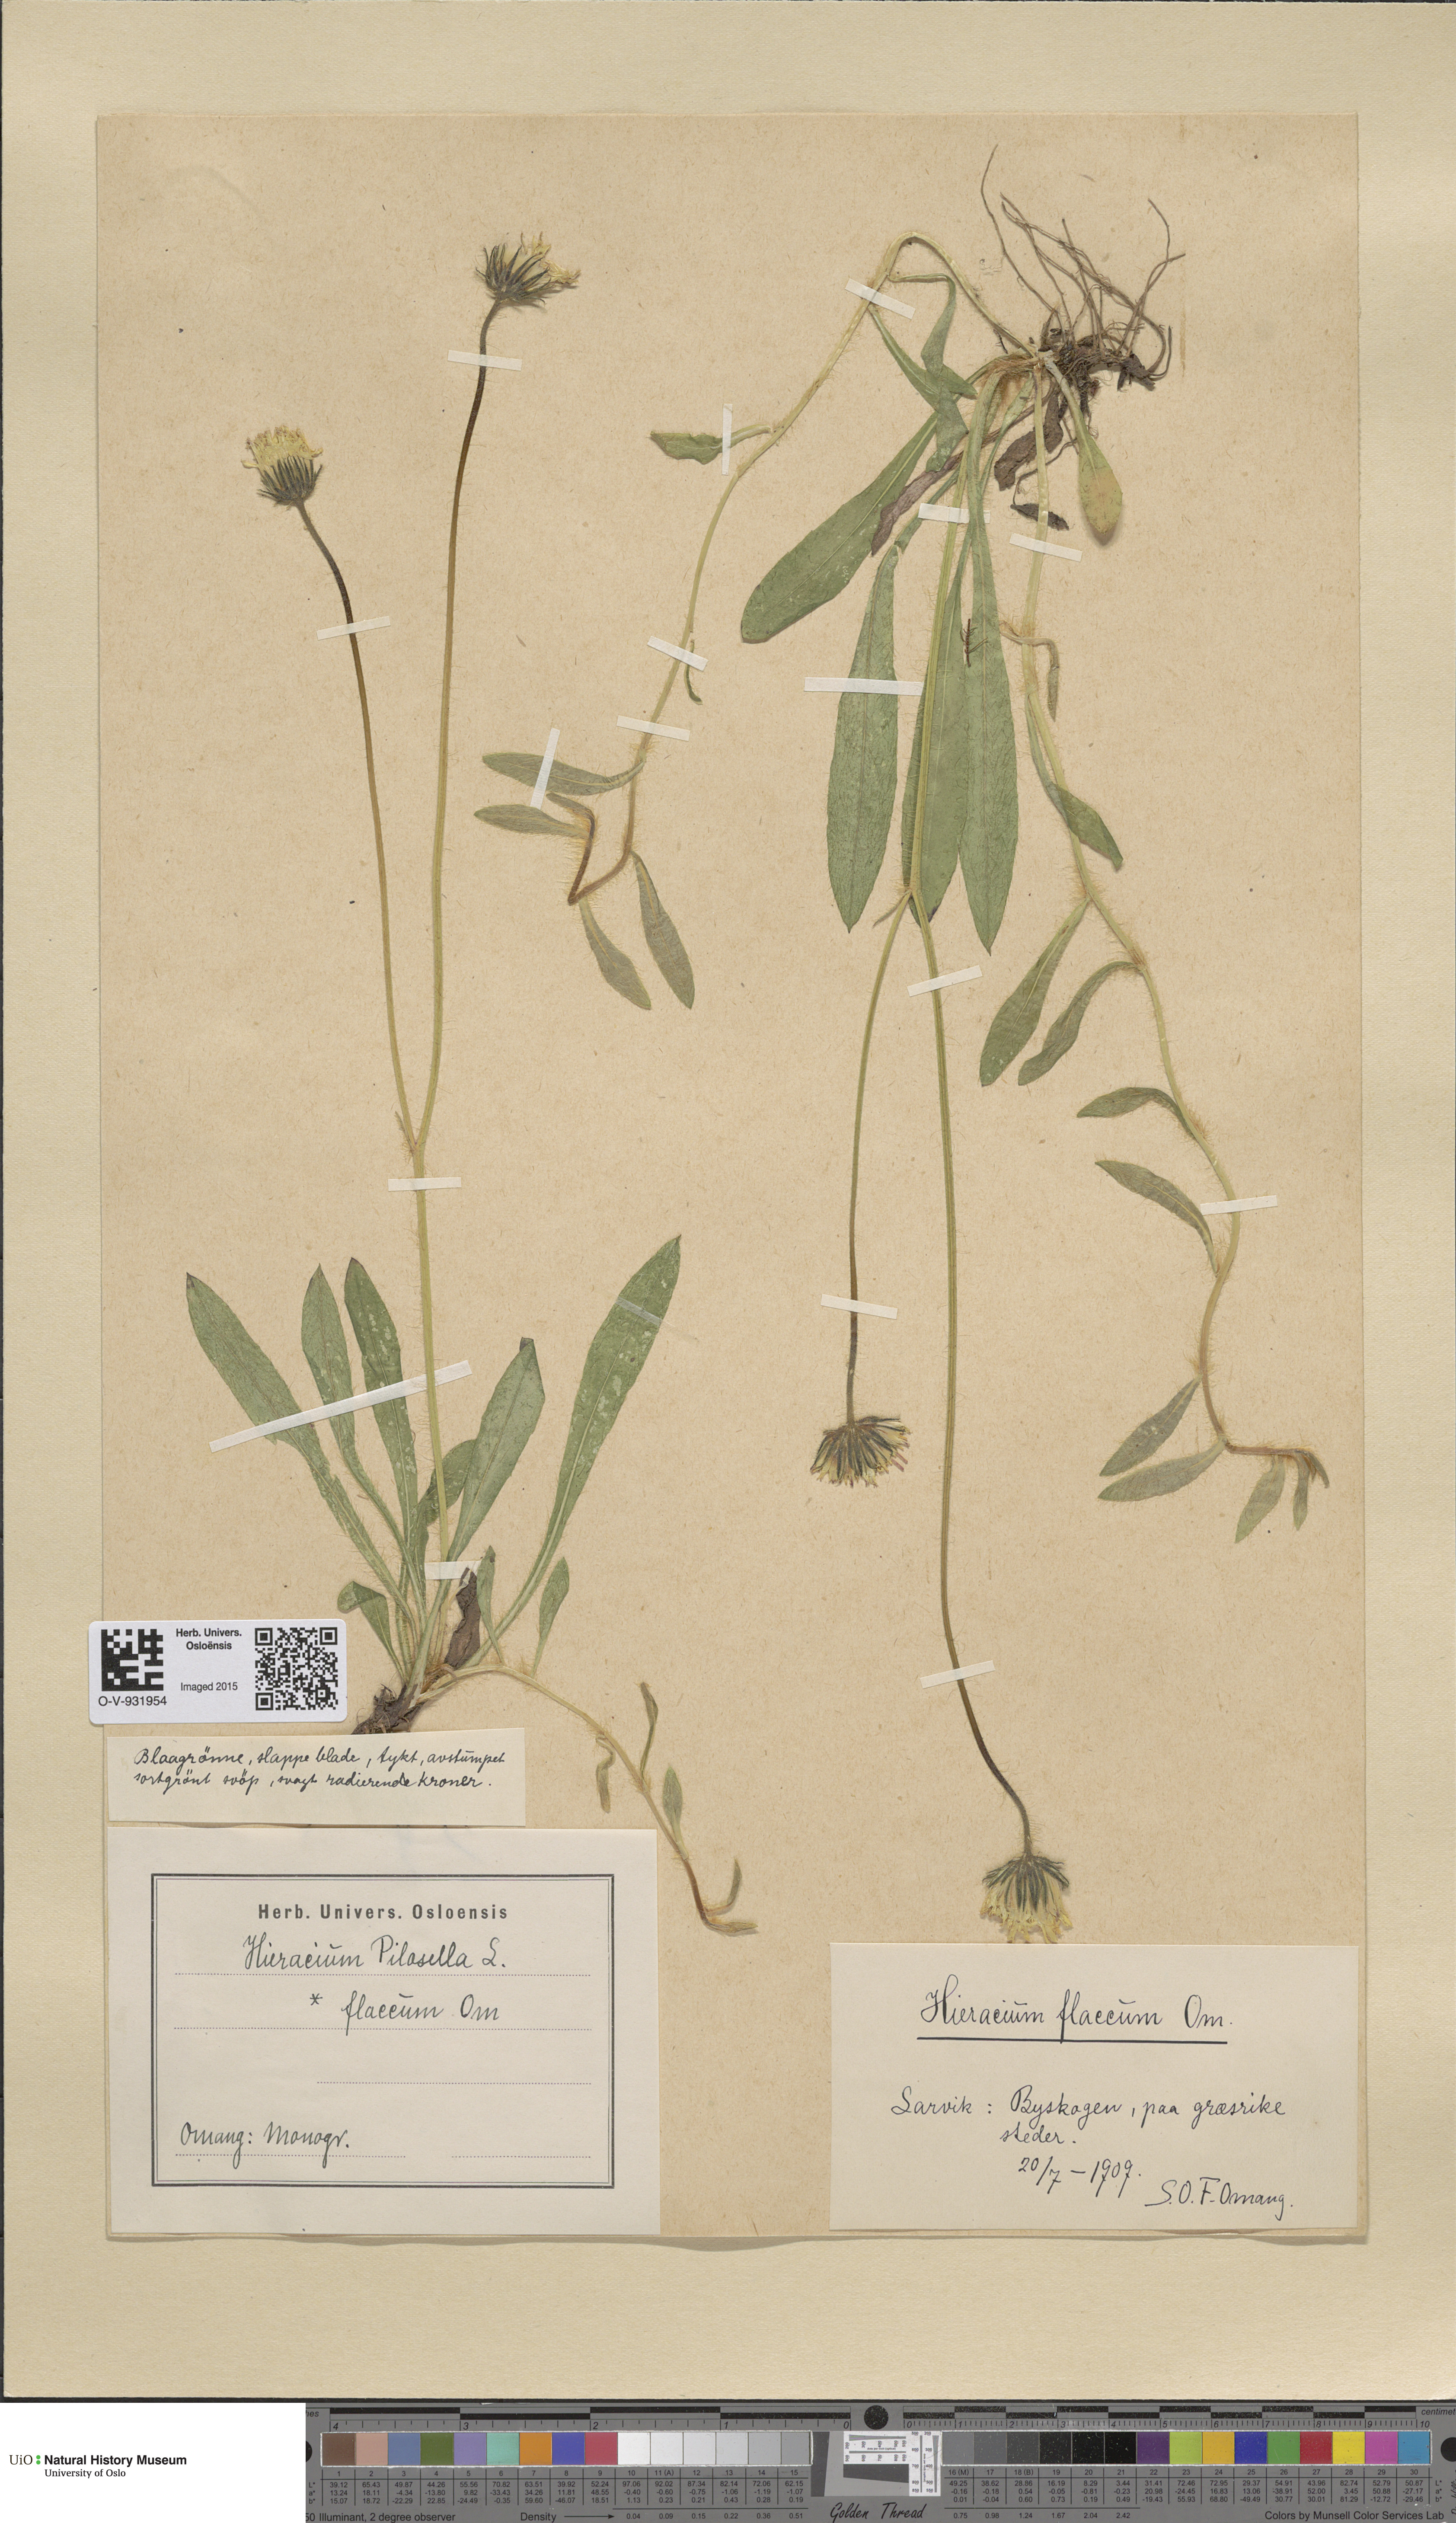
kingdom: Plantae
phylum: Tracheophyta
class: Magnoliopsida
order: Asterales
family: Asteraceae
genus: Pilosella
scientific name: Pilosella officinarum
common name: Mouse-ear hawkweed
